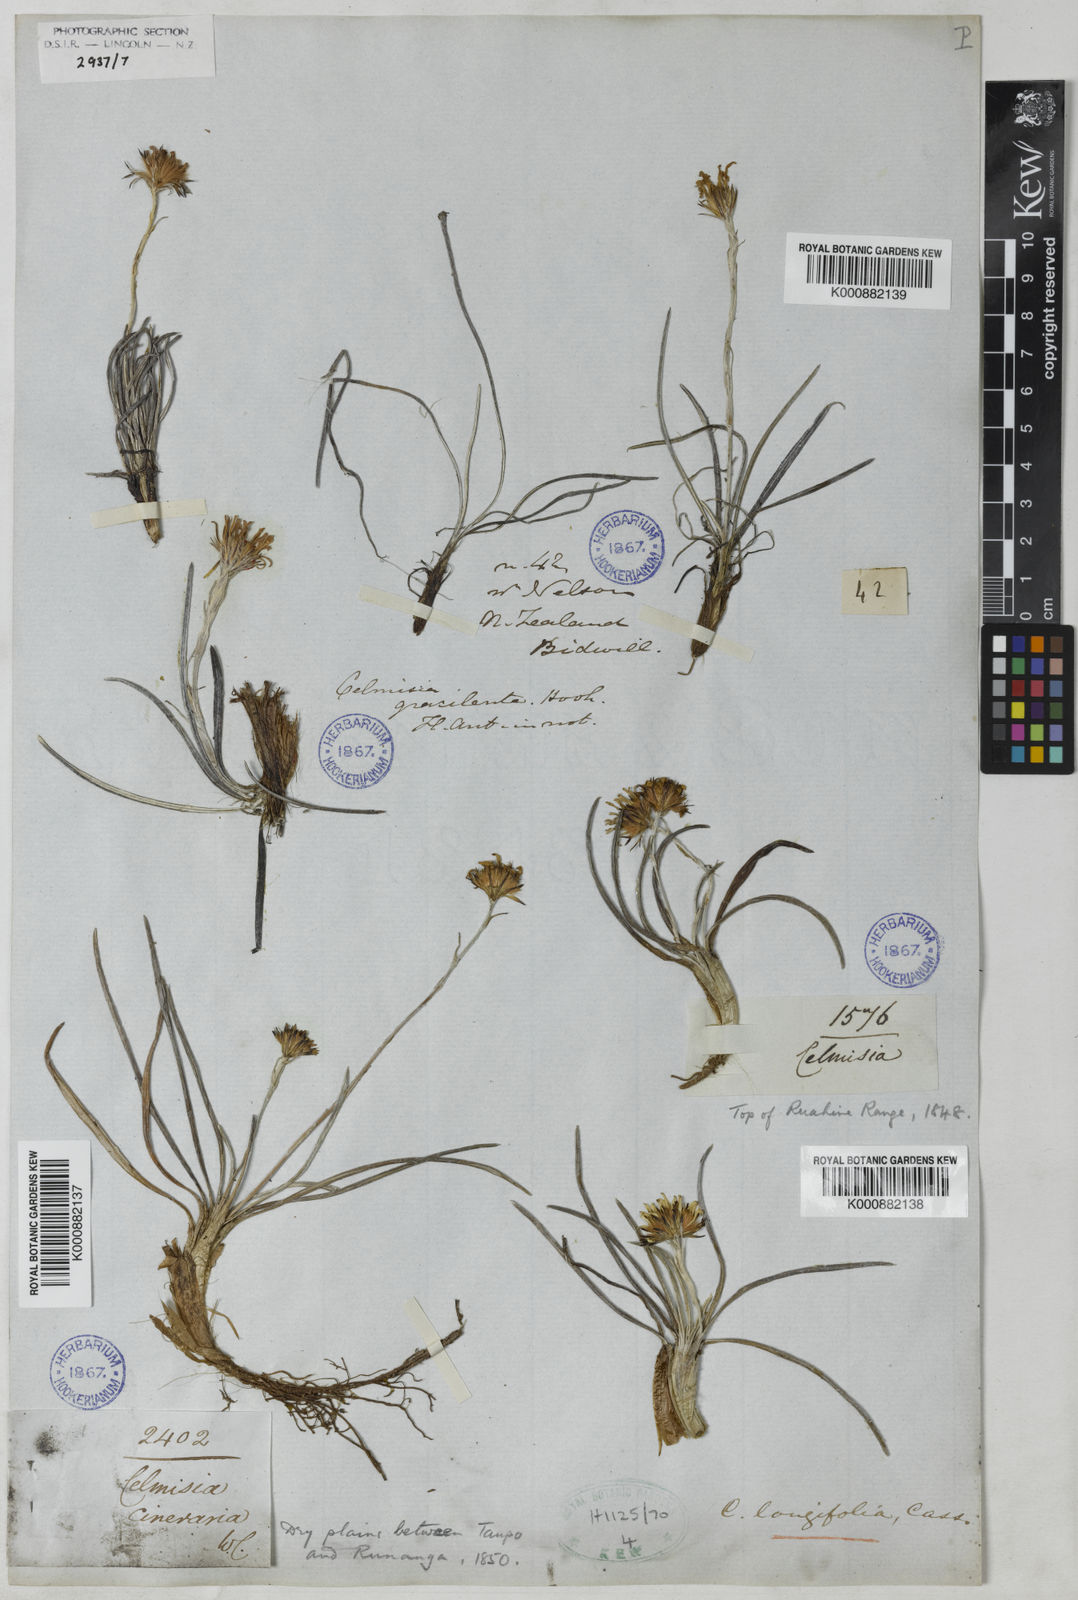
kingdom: Plantae
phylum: Tracheophyta
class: Magnoliopsida
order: Asterales
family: Asteraceae
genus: Celmisia
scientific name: Celmisia graminifolia
